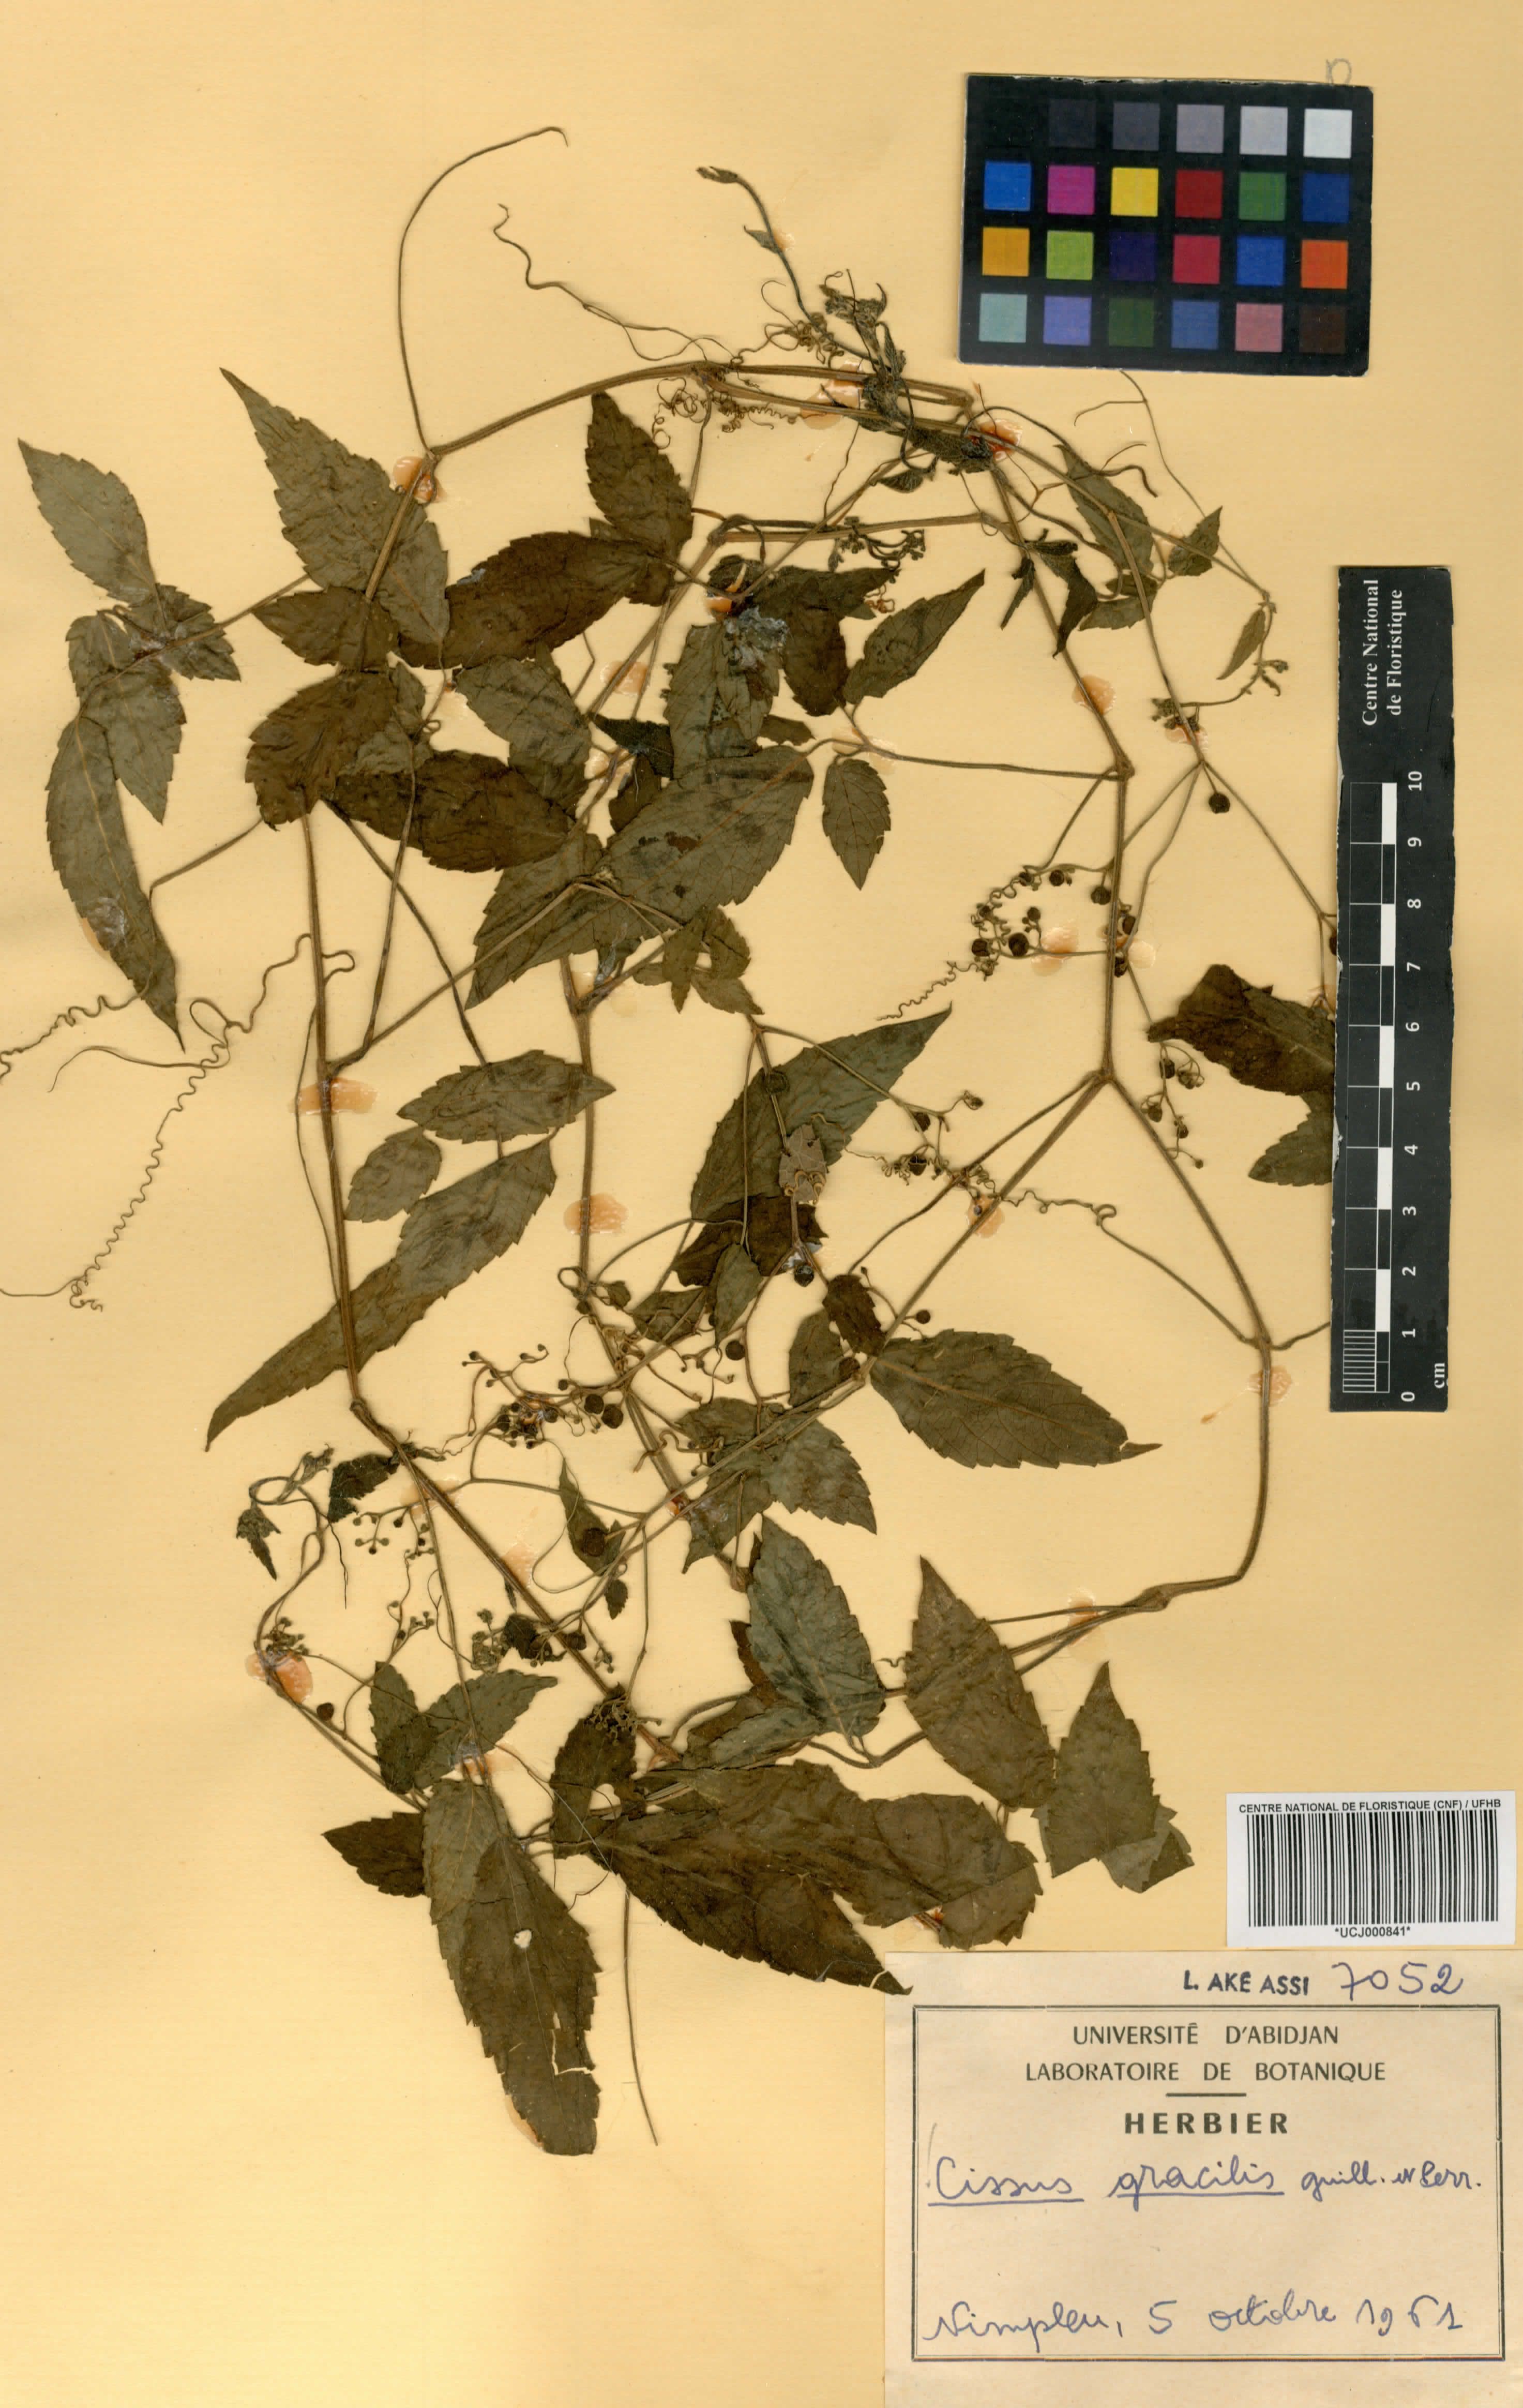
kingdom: Plantae
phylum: Tracheophyta
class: Magnoliopsida
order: Vitales
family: Vitaceae
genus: Afrocayratia
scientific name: Afrocayratia gracilis
